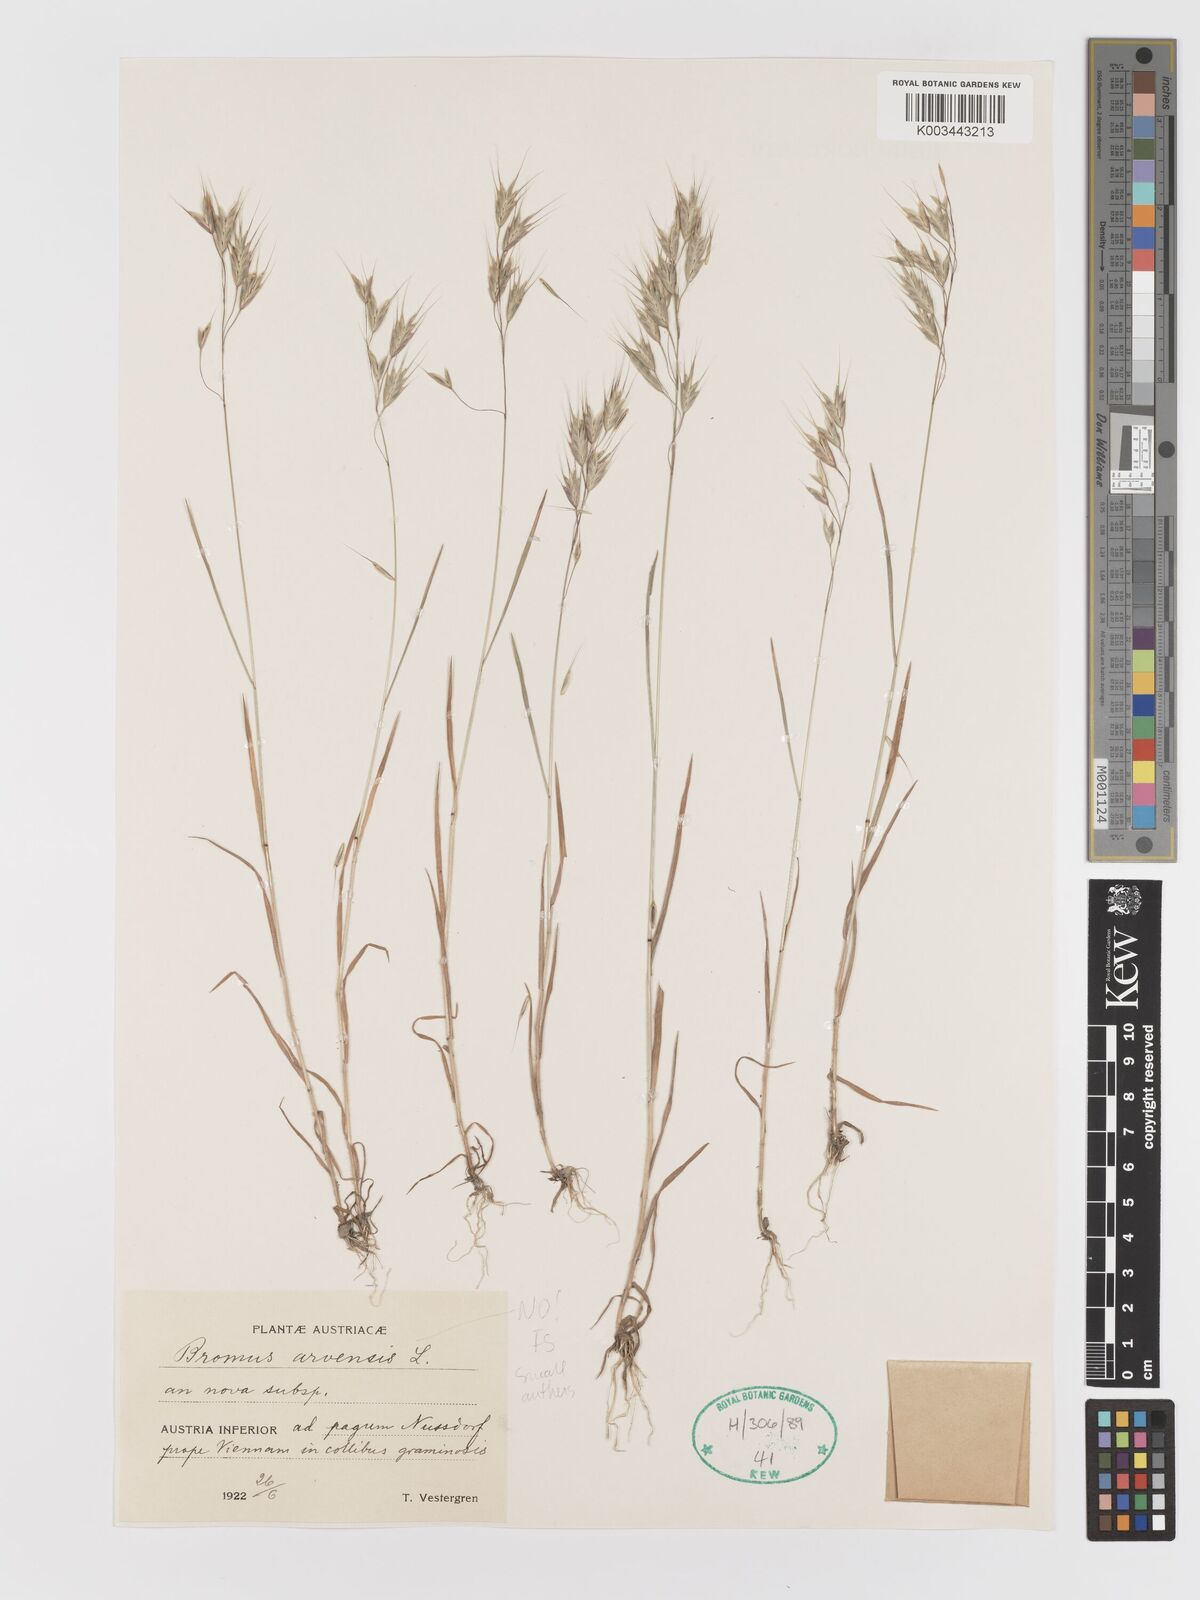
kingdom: Plantae
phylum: Tracheophyta
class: Liliopsida
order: Poales
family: Poaceae
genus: Bromus
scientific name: Bromus
